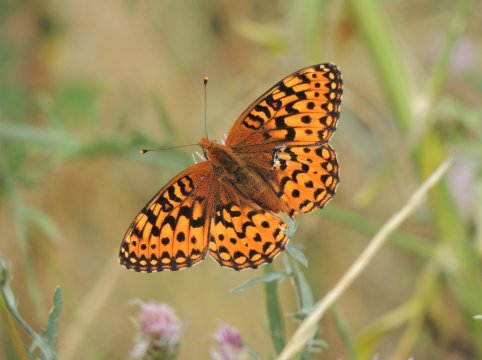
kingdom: Animalia
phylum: Arthropoda
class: Insecta
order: Lepidoptera
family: Nymphalidae
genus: Speyeria
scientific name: Speyeria hydaspe
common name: Hydaspe Fritillary
